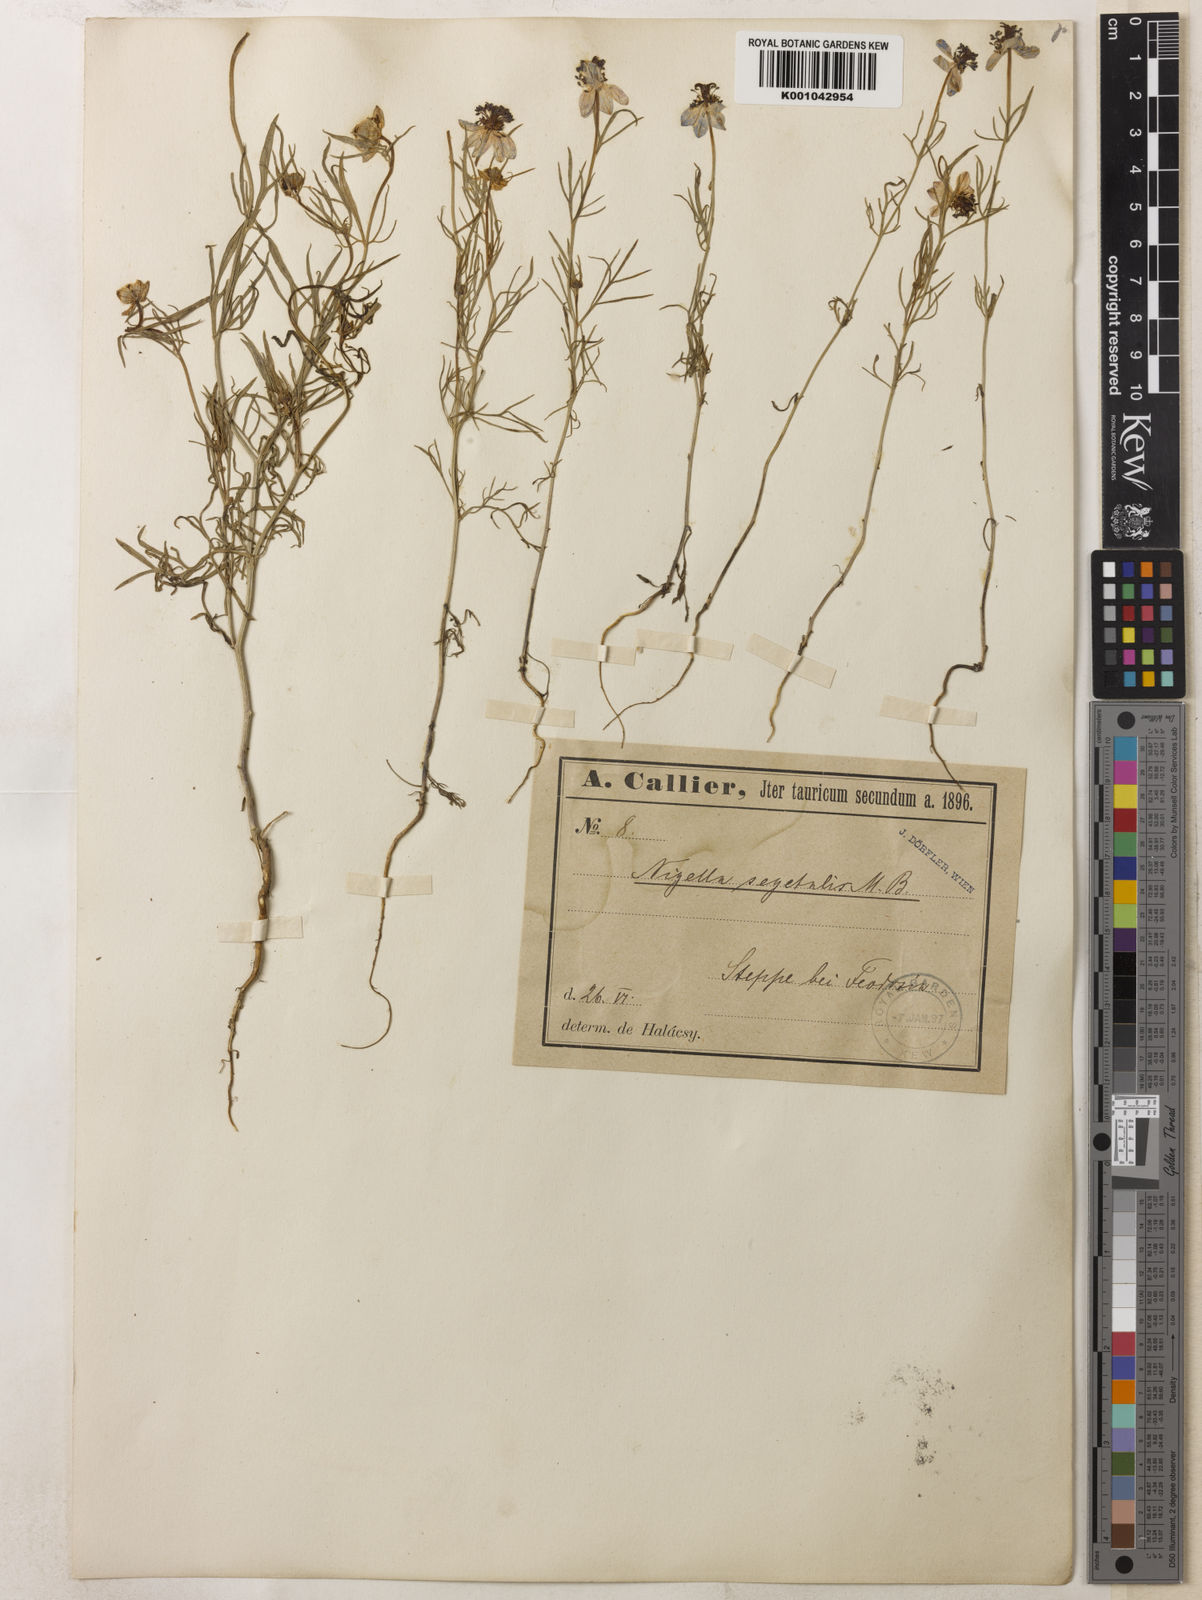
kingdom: Plantae
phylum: Tracheophyta
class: Magnoliopsida
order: Ranunculales
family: Ranunculaceae
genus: Nigella
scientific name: Nigella segetalis
